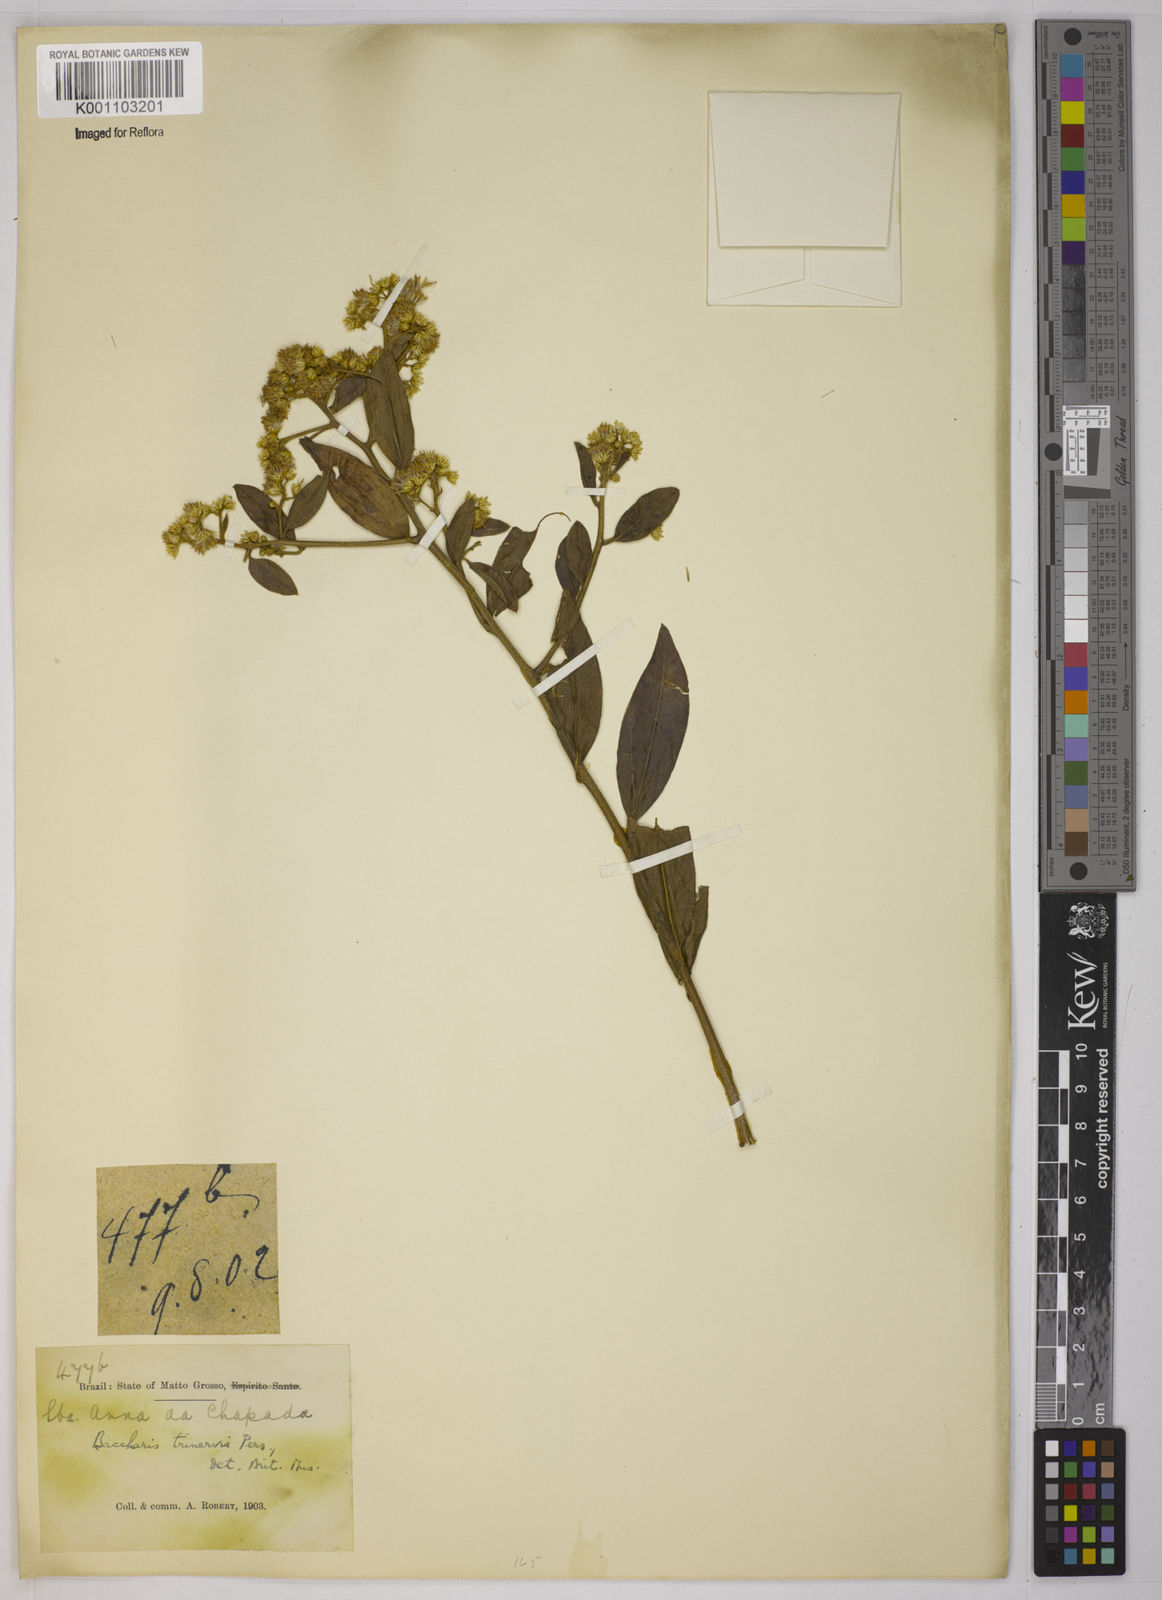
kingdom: Plantae
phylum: Tracheophyta
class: Magnoliopsida
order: Asterales
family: Asteraceae
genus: Baccharis
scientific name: Baccharis trinervis
